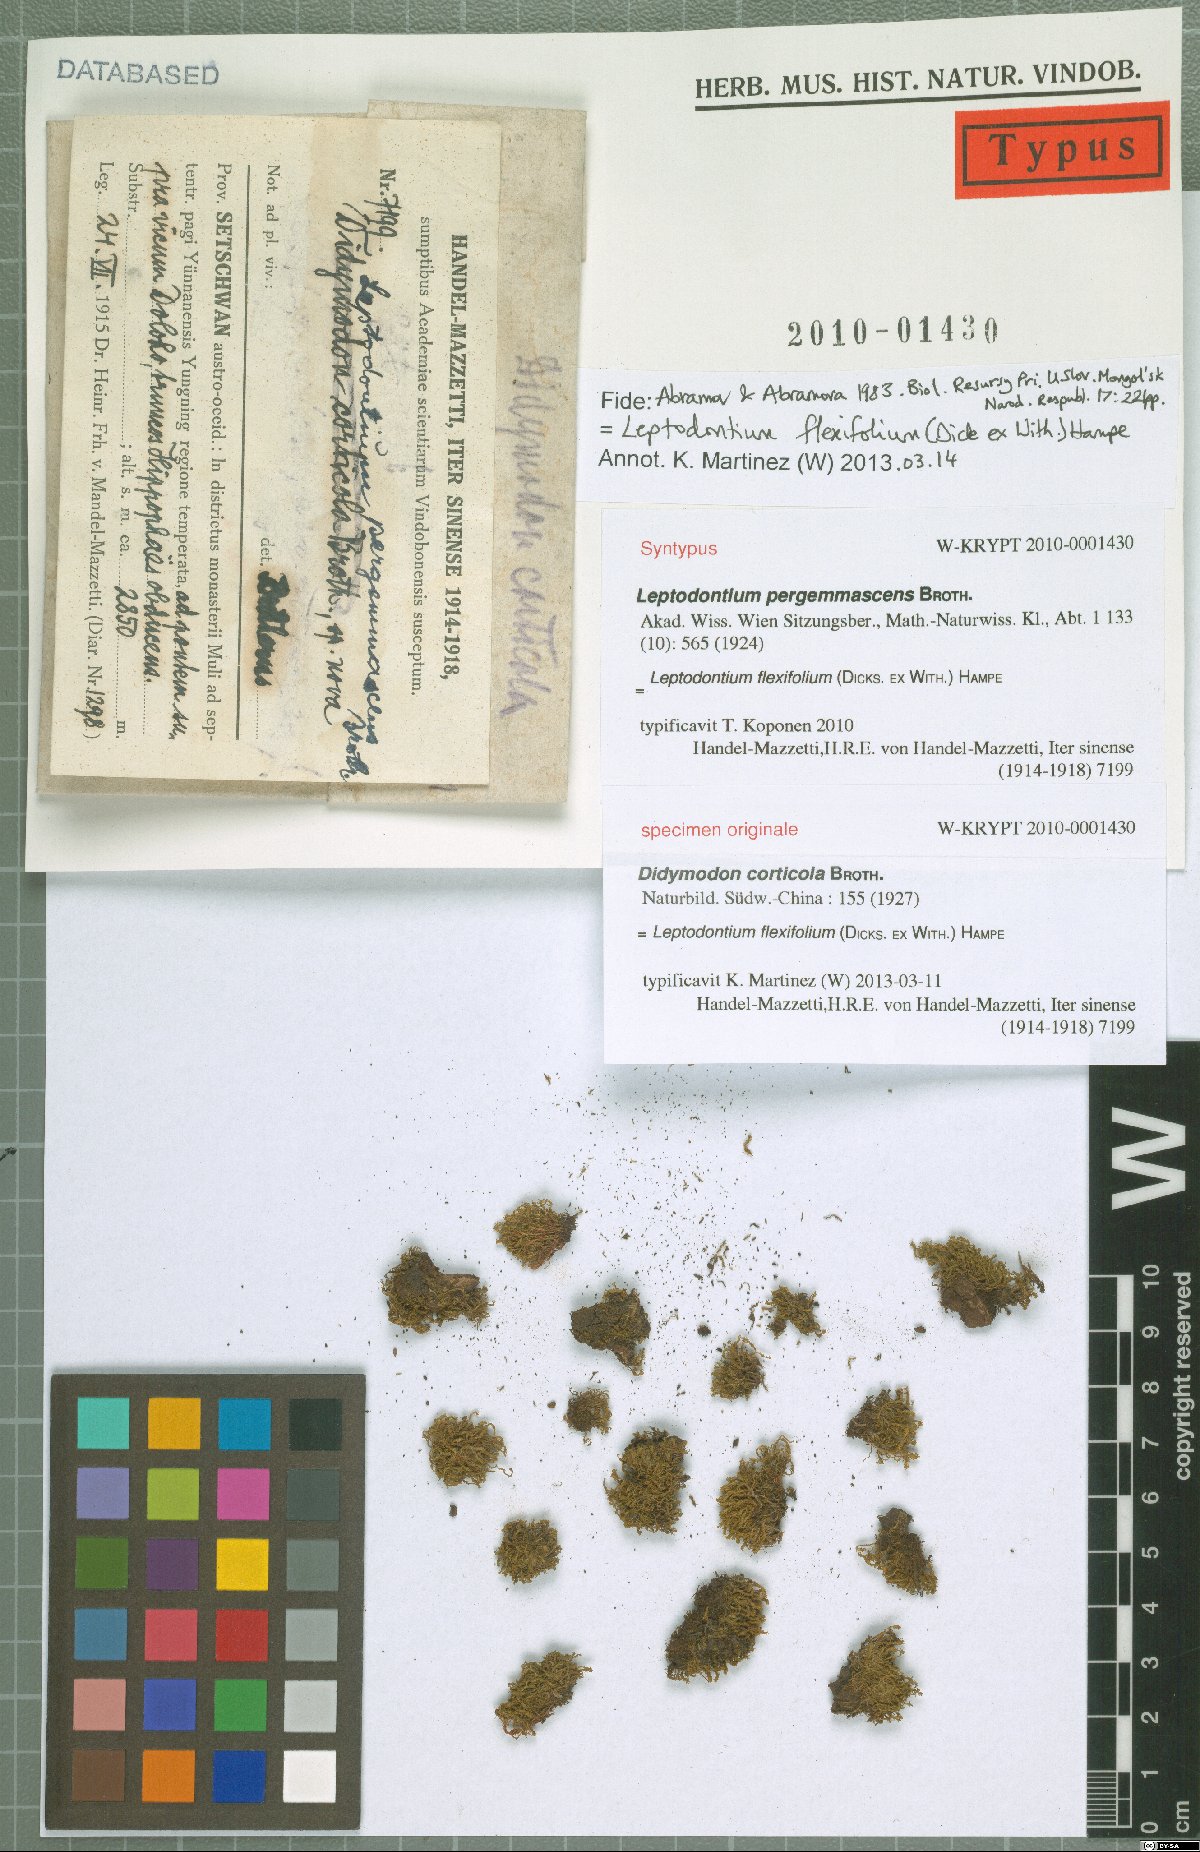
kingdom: Plantae
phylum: Bryophyta
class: Bryopsida
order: Pottiales
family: Pottiaceae
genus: Didymodon
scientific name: Didymodon
